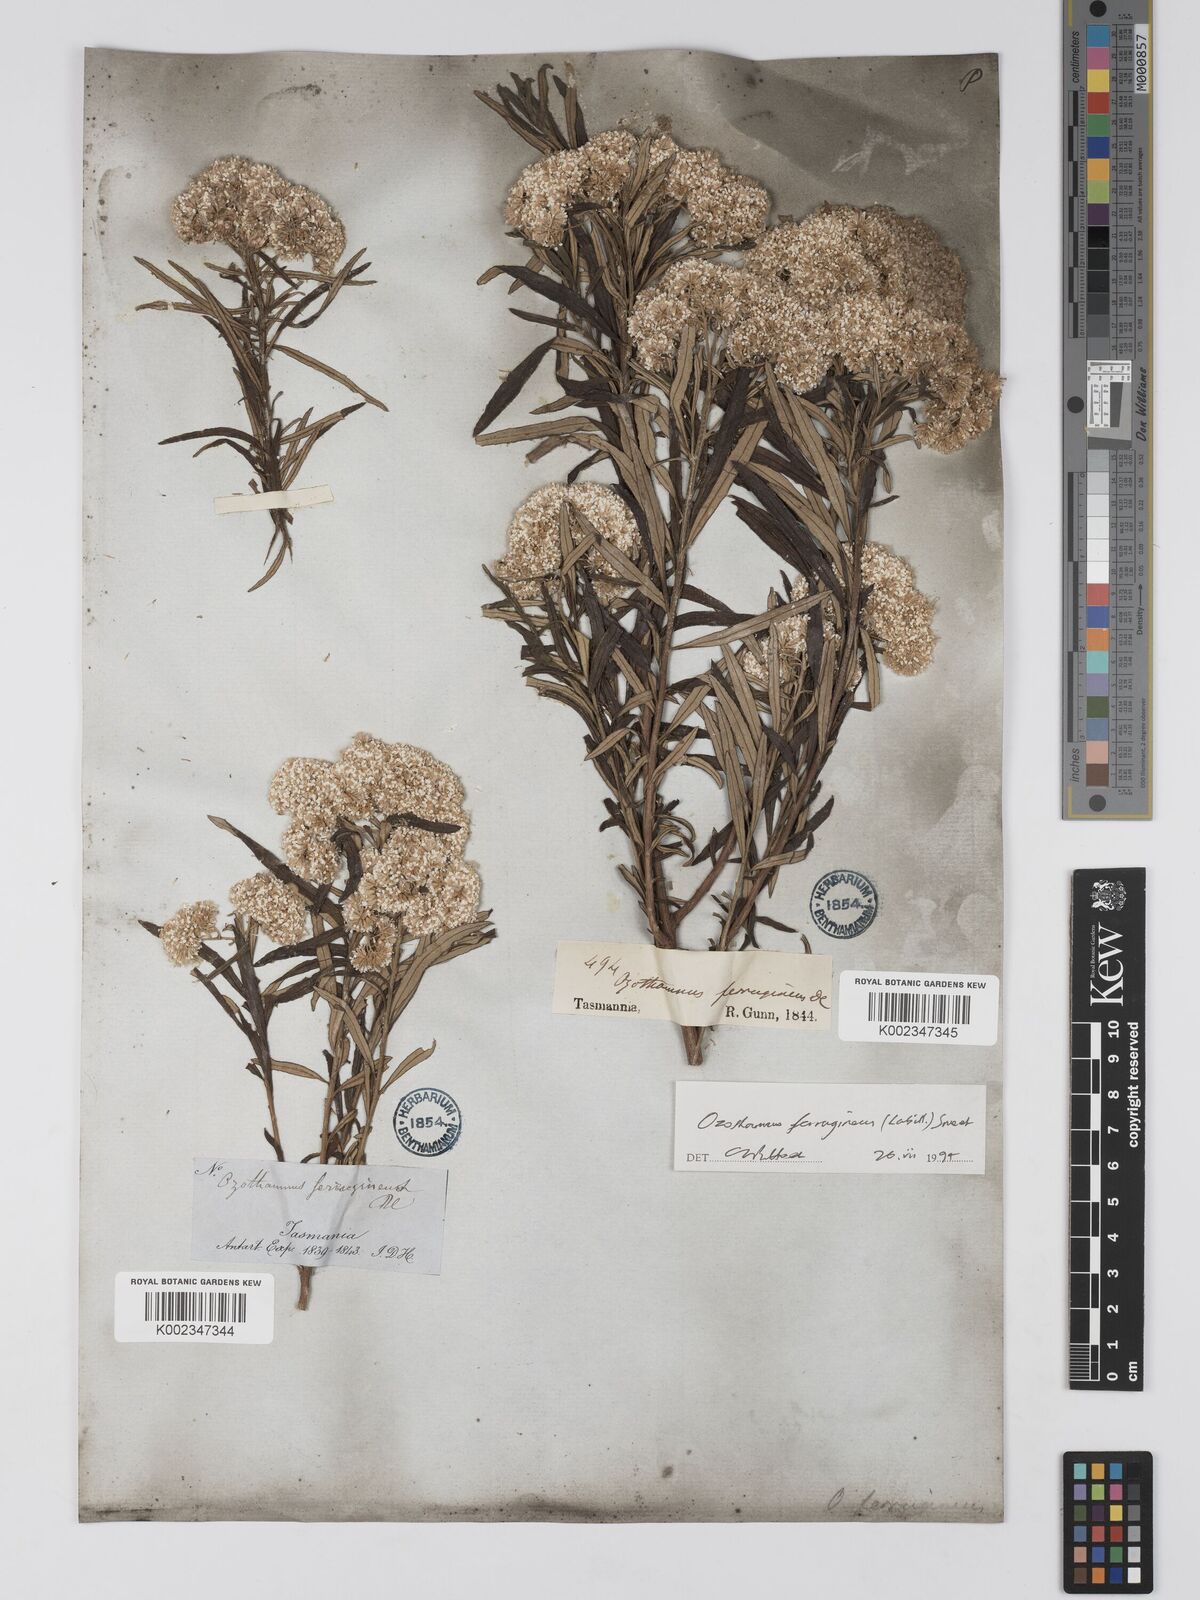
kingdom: Plantae
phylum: Tracheophyta
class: Magnoliopsida
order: Asterales
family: Asteraceae
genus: Ozothamnus
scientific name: Ozothamnus ferrugineus
